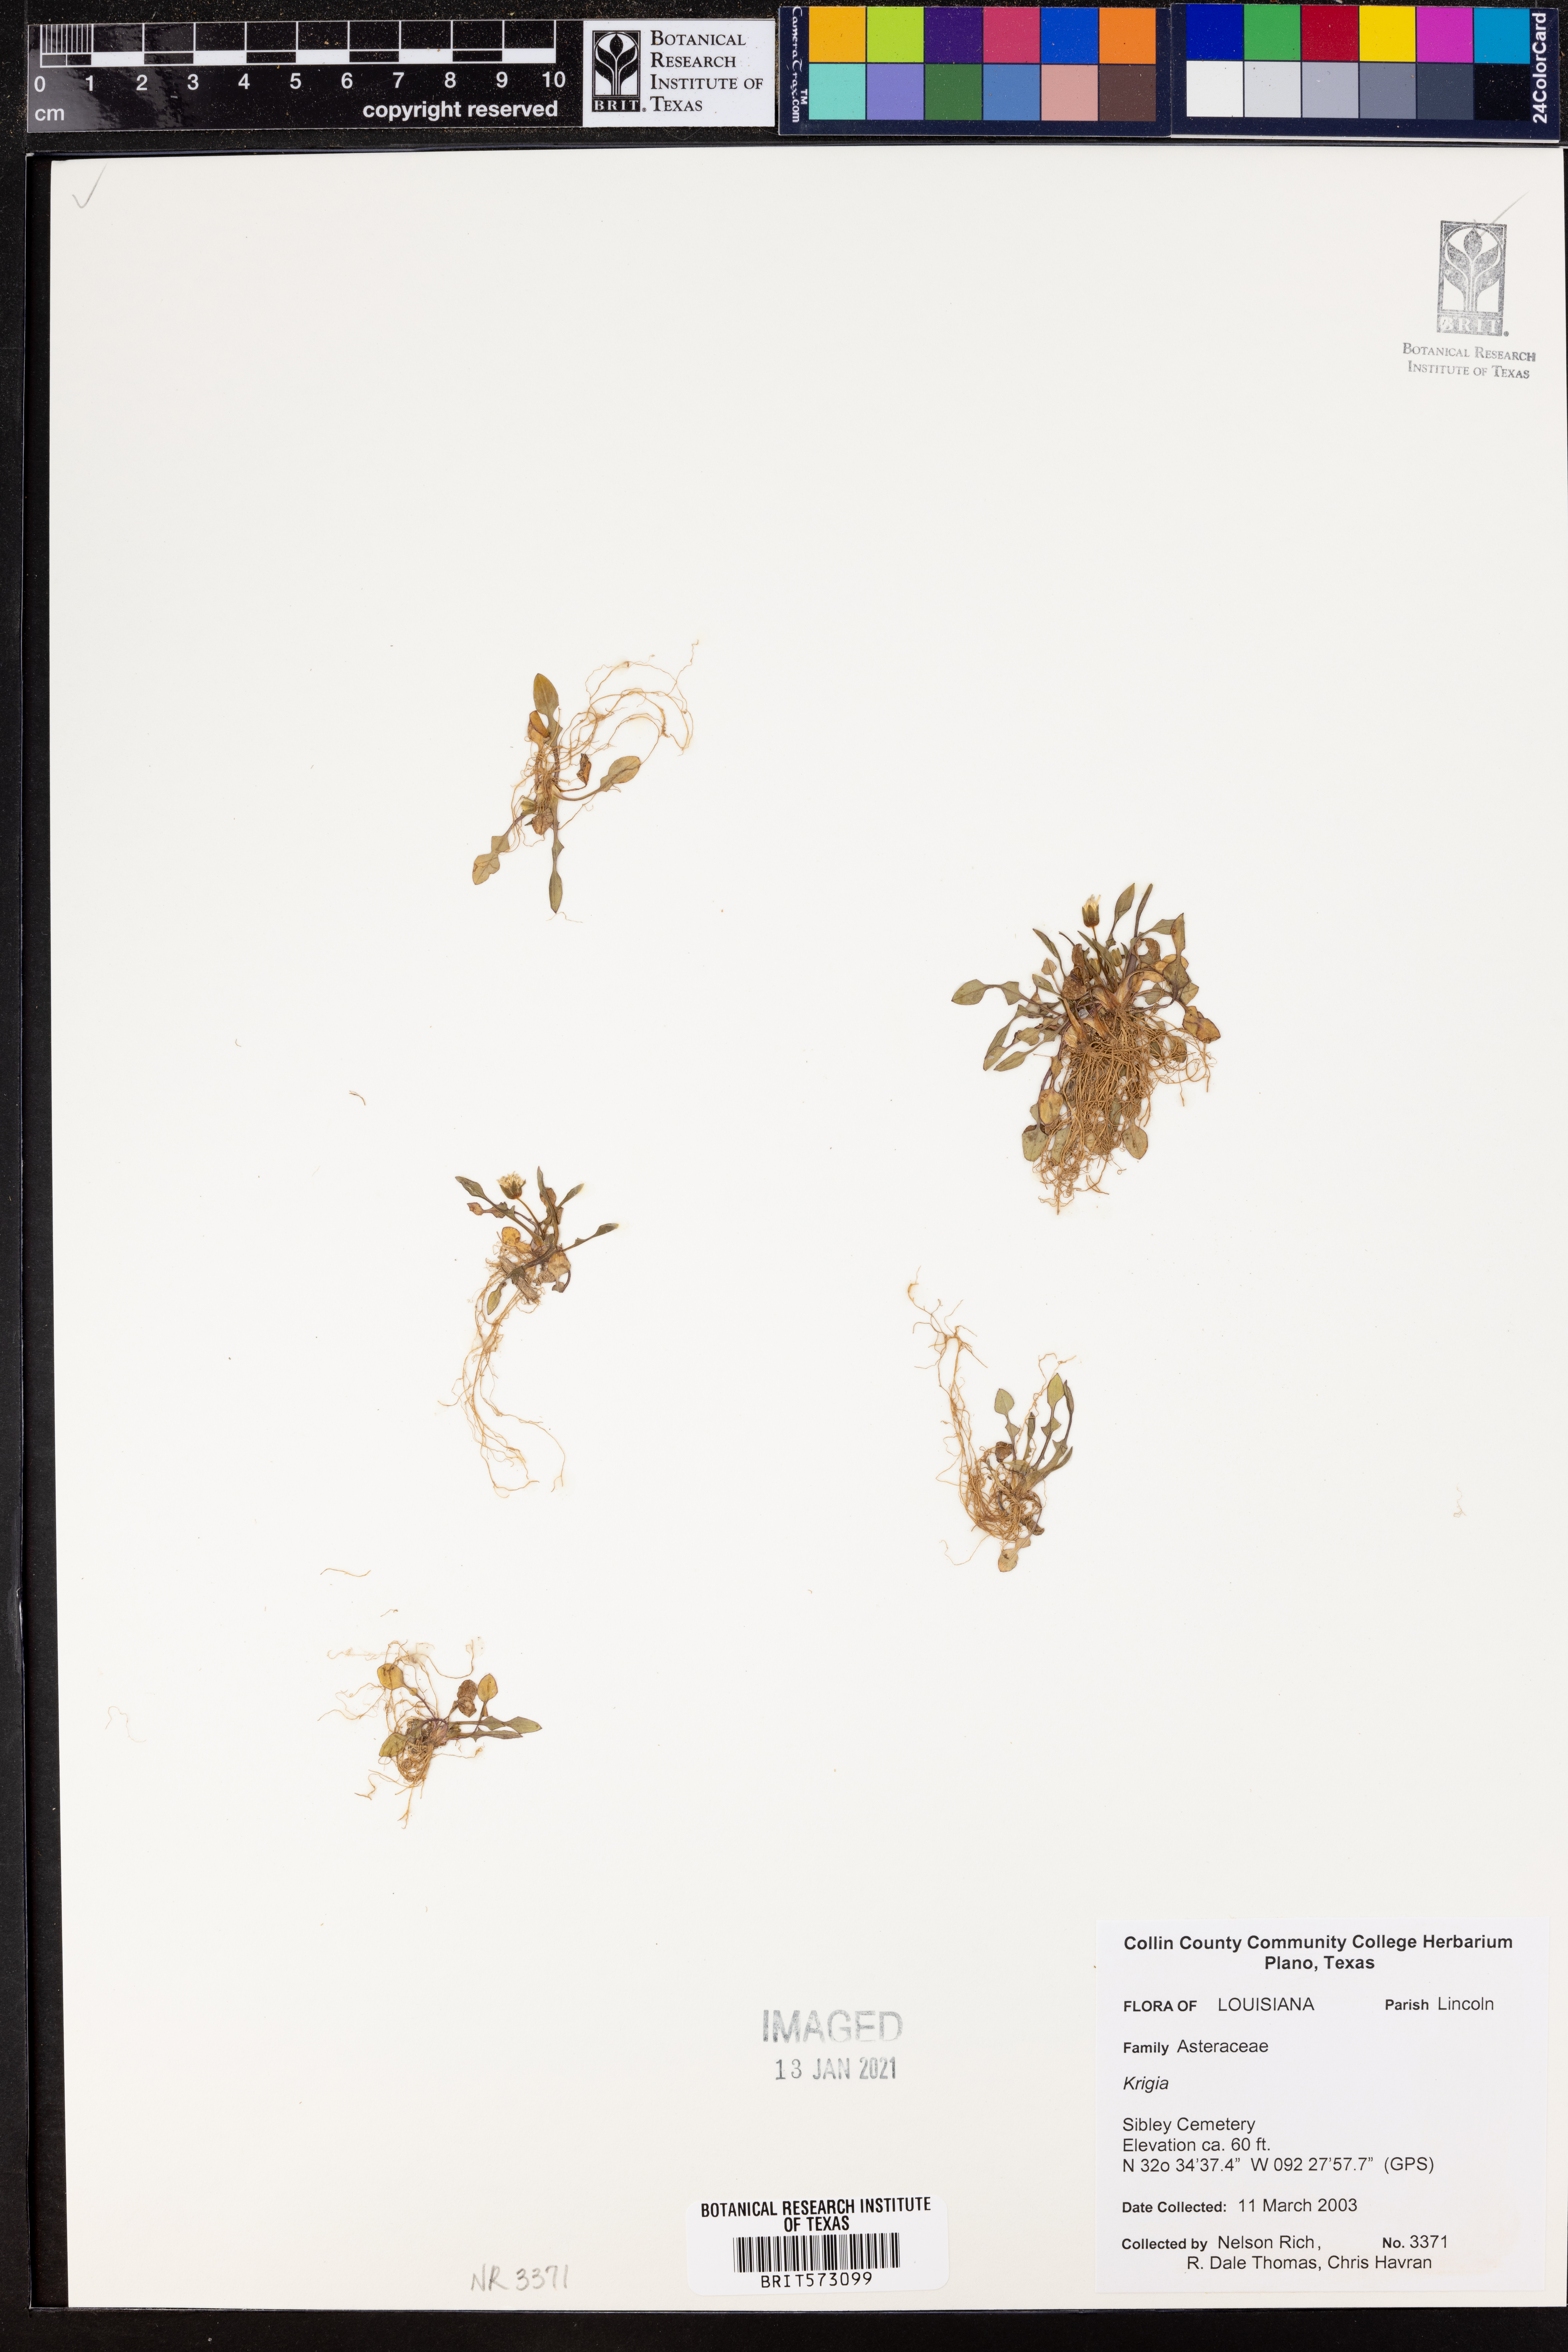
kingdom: Plantae
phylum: Tracheophyta
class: Magnoliopsida
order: Asterales
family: Asteraceae
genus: Krigia
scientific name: Krigia
